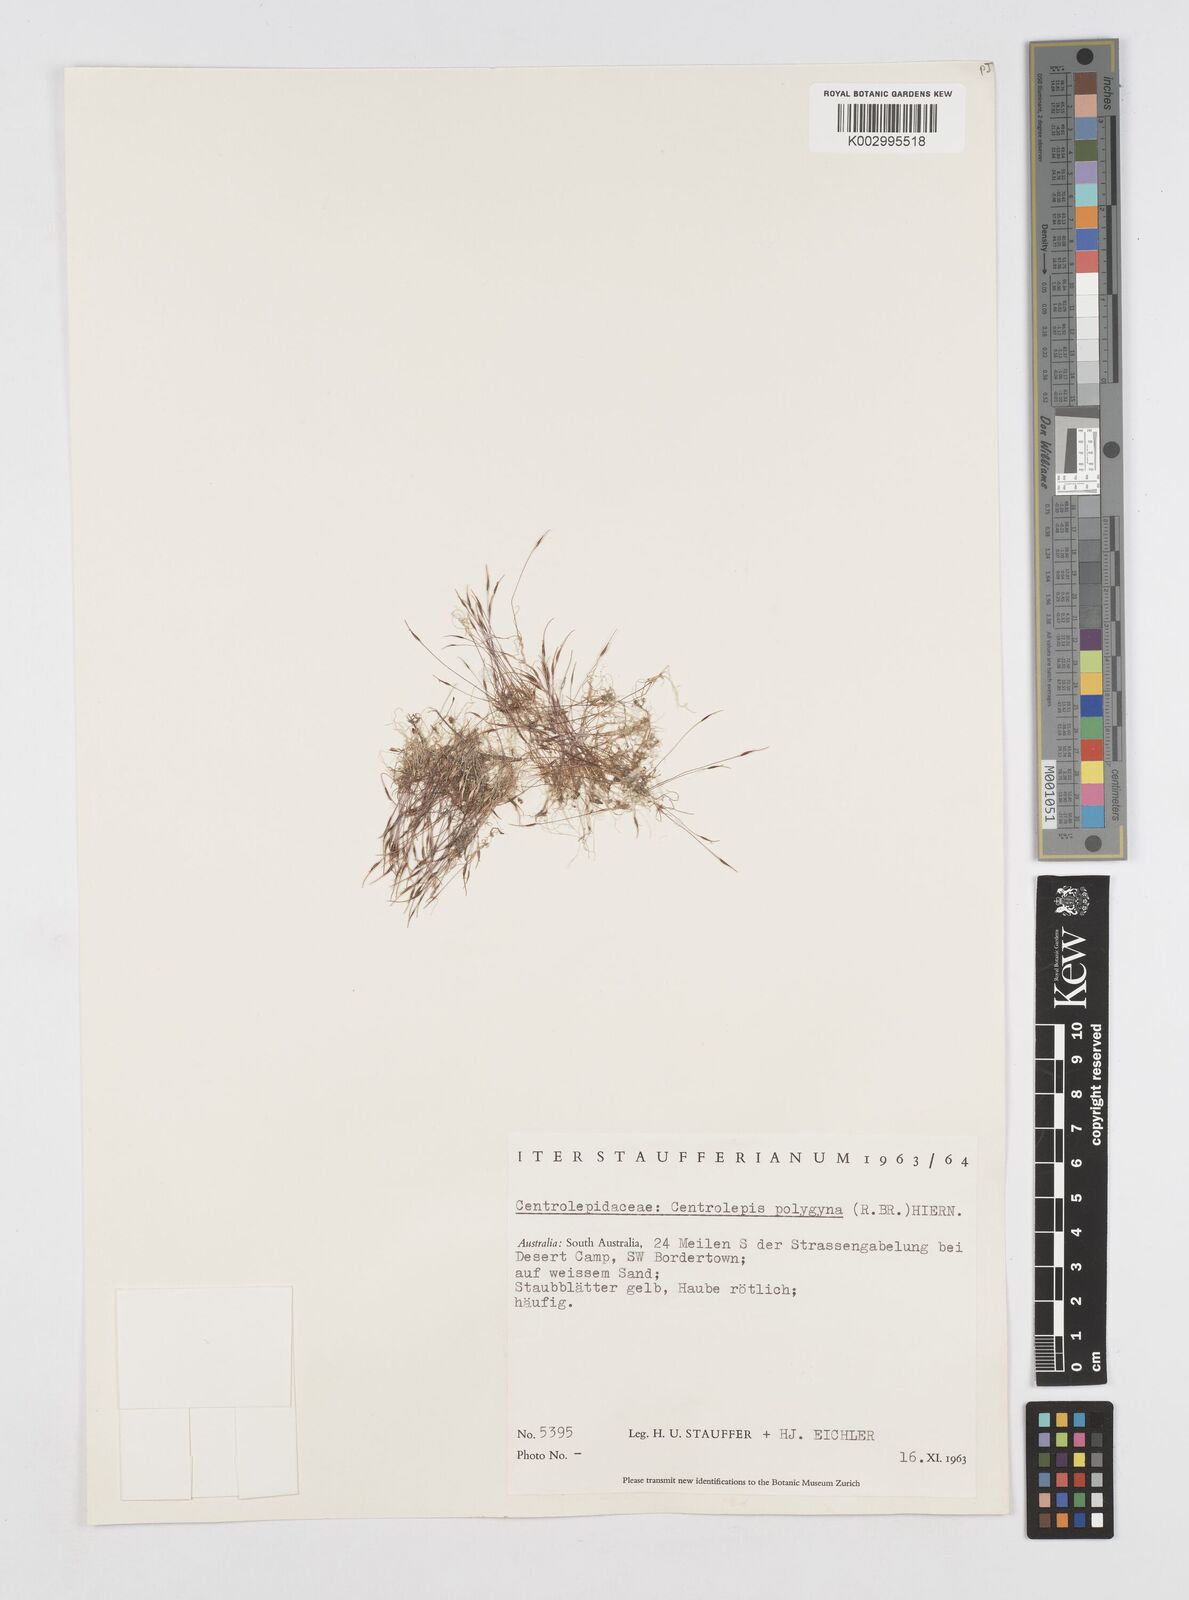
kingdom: Plantae
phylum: Tracheophyta
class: Liliopsida
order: Poales
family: Restionaceae
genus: Centrolepis
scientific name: Centrolepis polygyna
